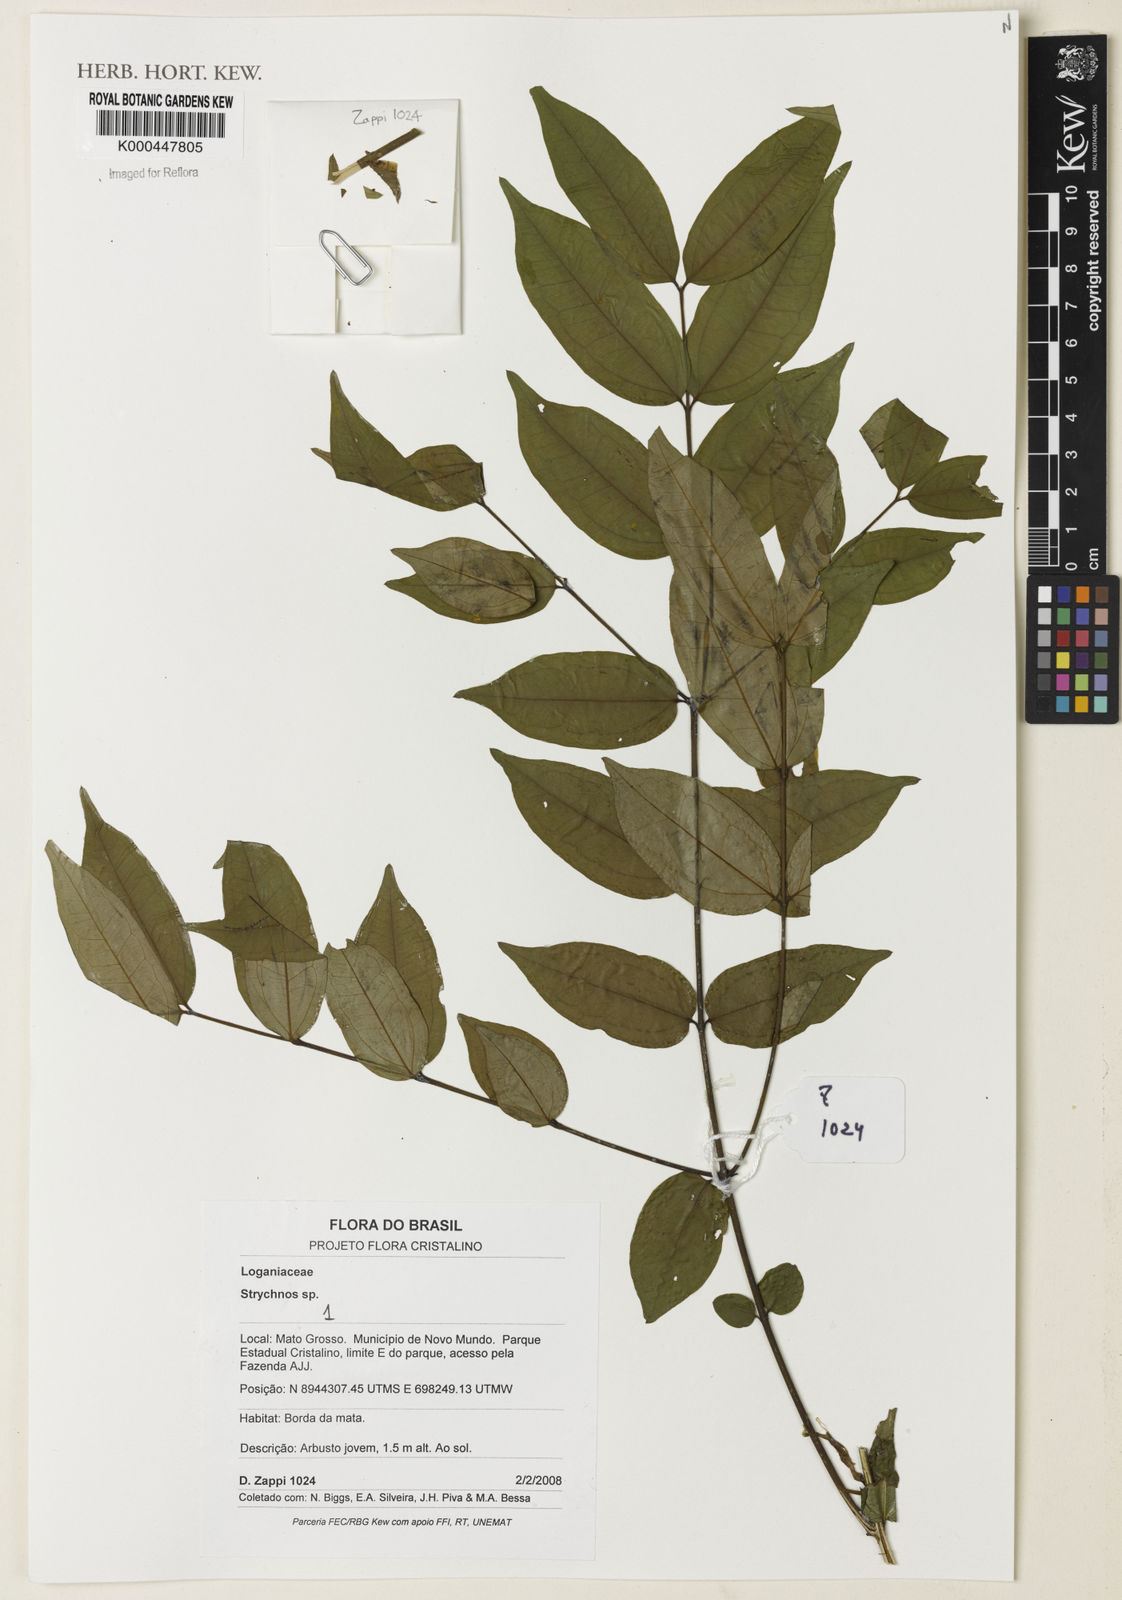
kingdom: Plantae
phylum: Tracheophyta
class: Magnoliopsida
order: Gentianales
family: Loganiaceae
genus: Strychnos
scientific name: Strychnos
